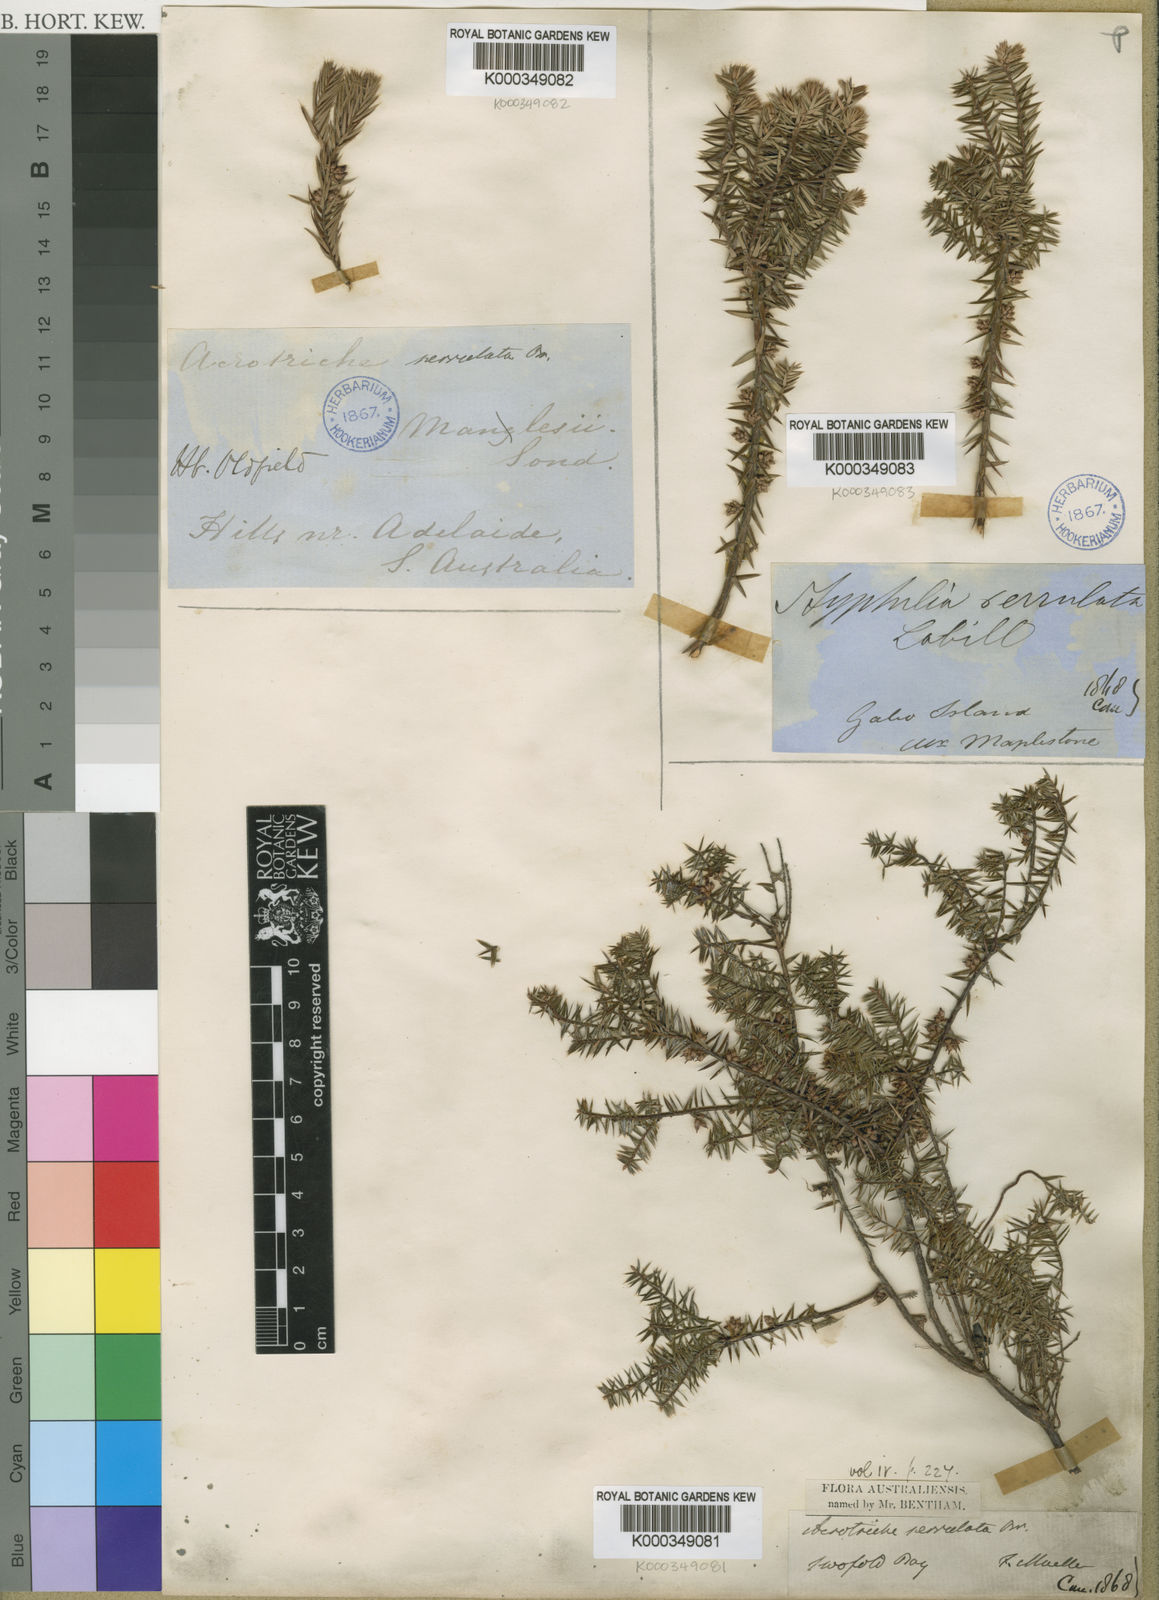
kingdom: Plantae
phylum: Tracheophyta
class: Magnoliopsida
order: Ericales
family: Ericaceae
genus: Acrotriche
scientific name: Acrotriche serrulata
